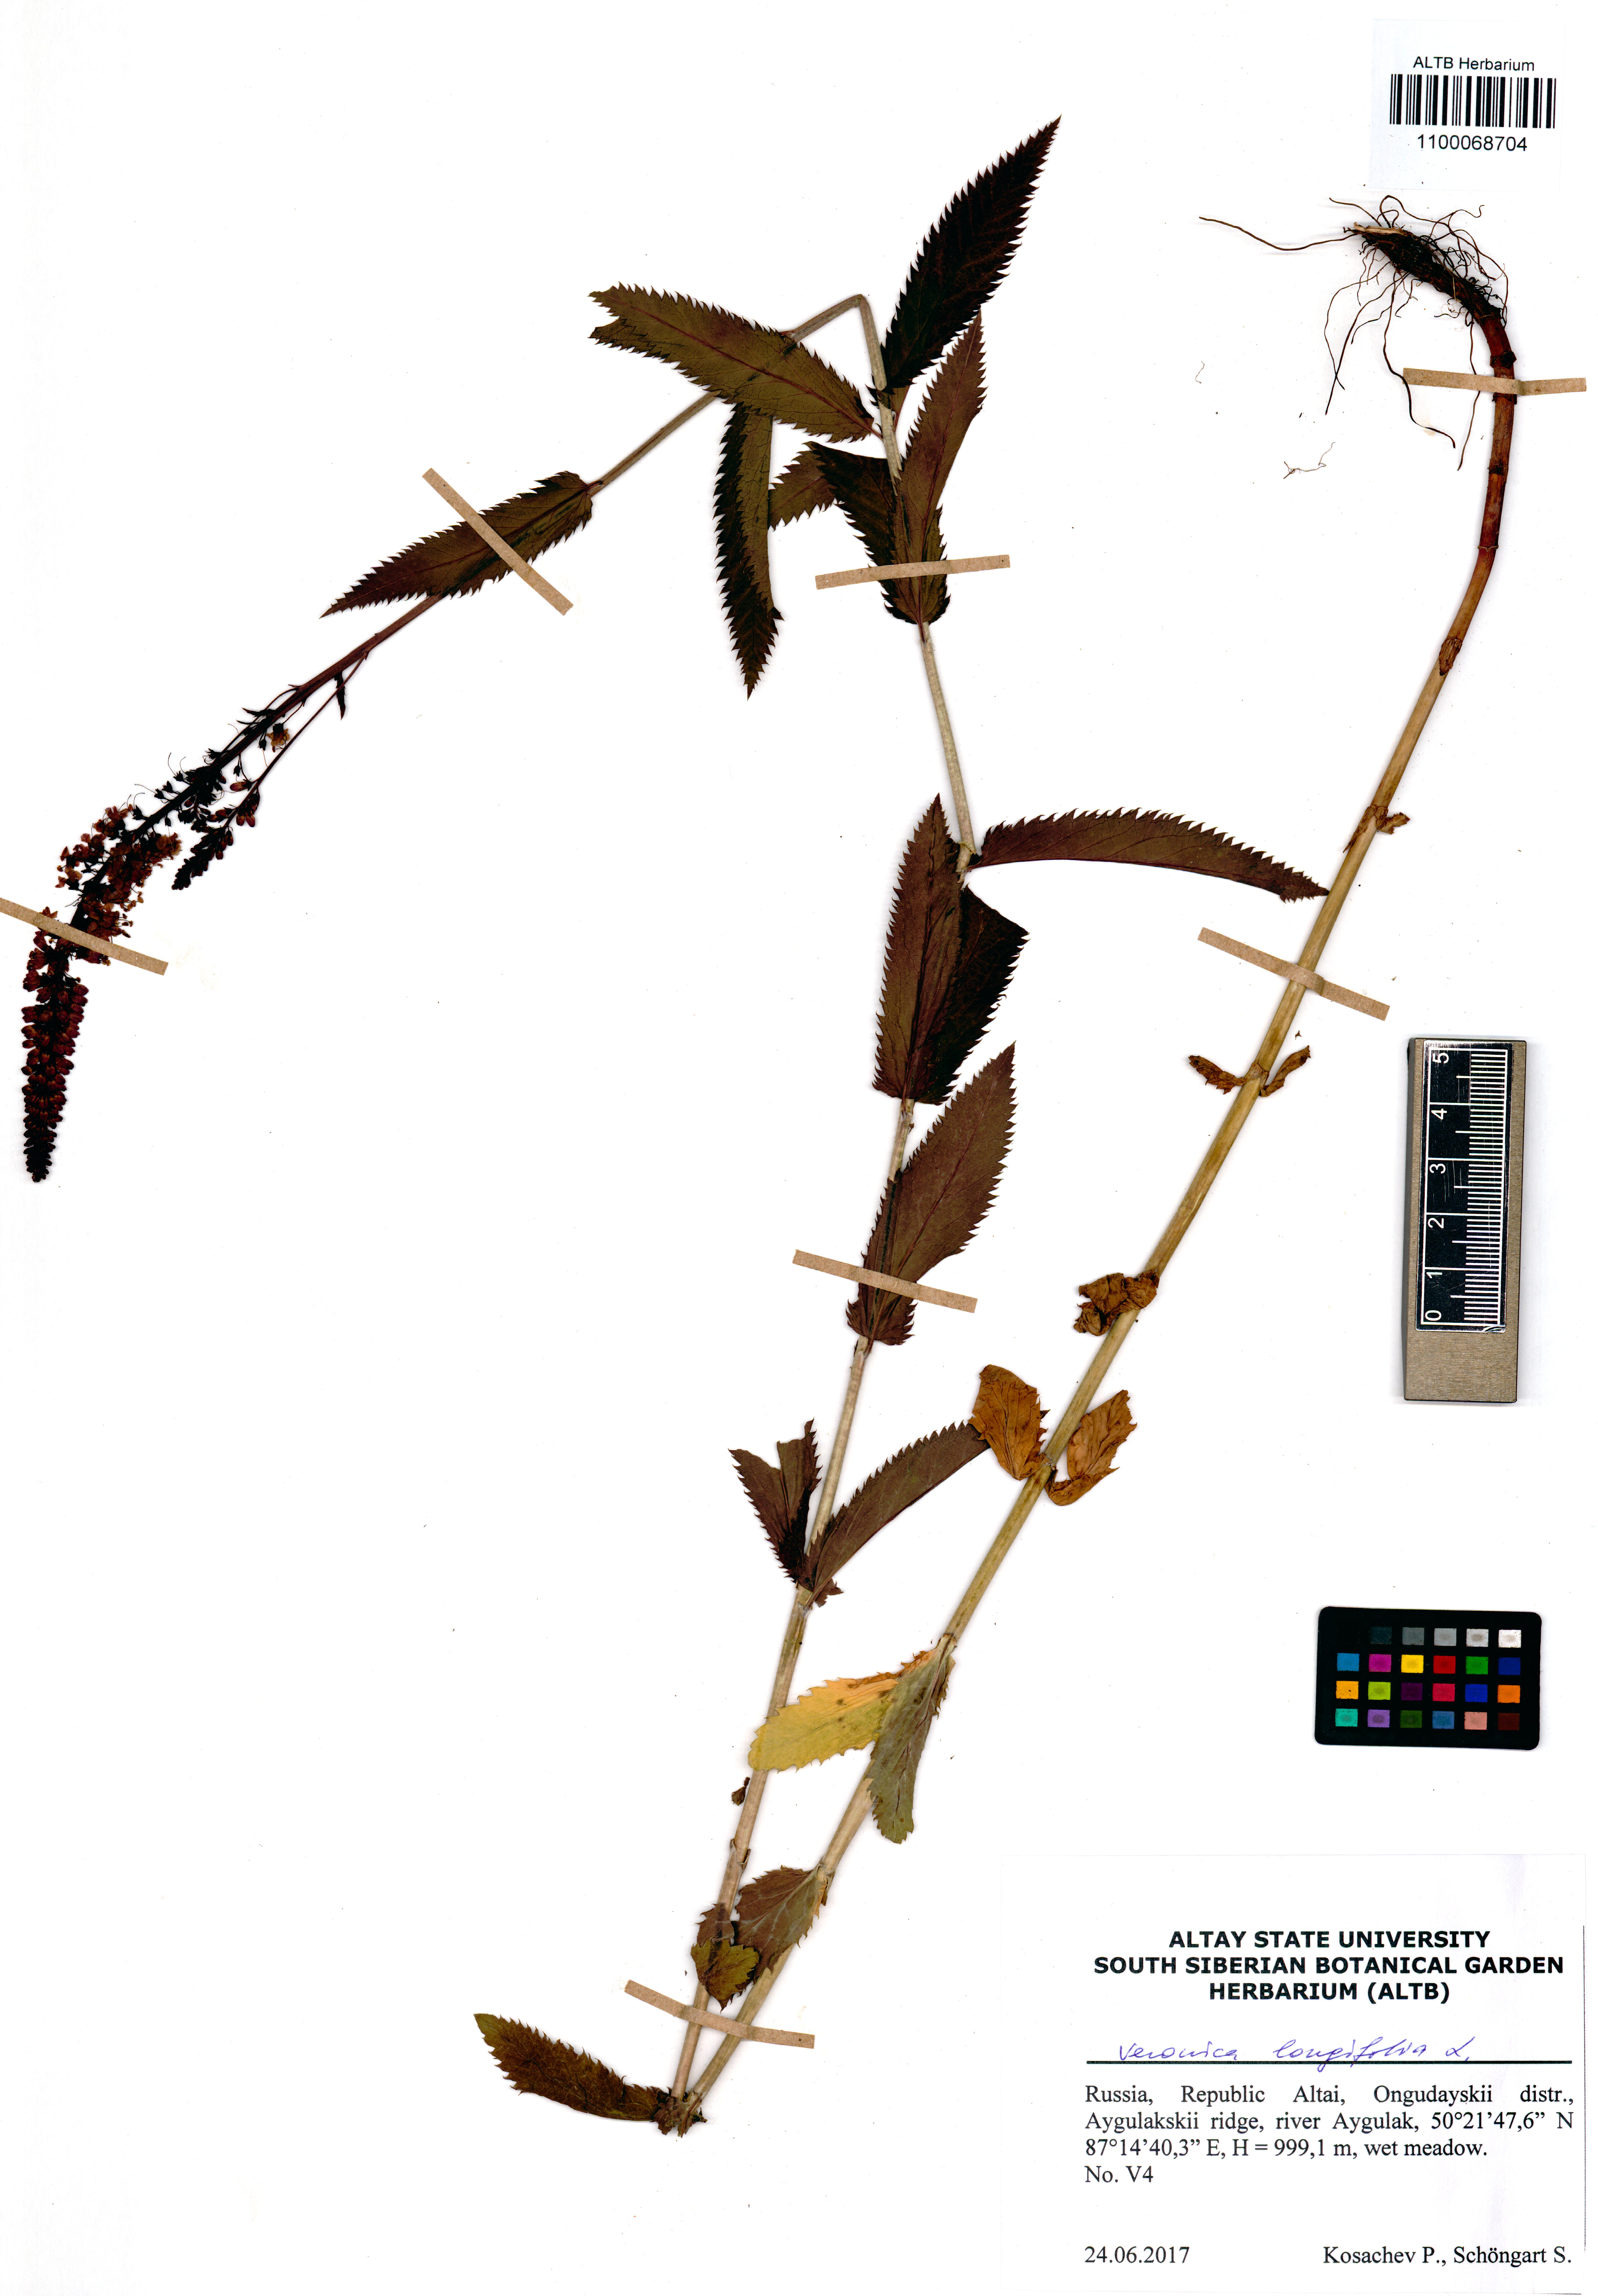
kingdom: Plantae
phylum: Tracheophyta
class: Magnoliopsida
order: Lamiales
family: Plantaginaceae
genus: Veronica
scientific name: Veronica longifolia
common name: Garden speedwell
